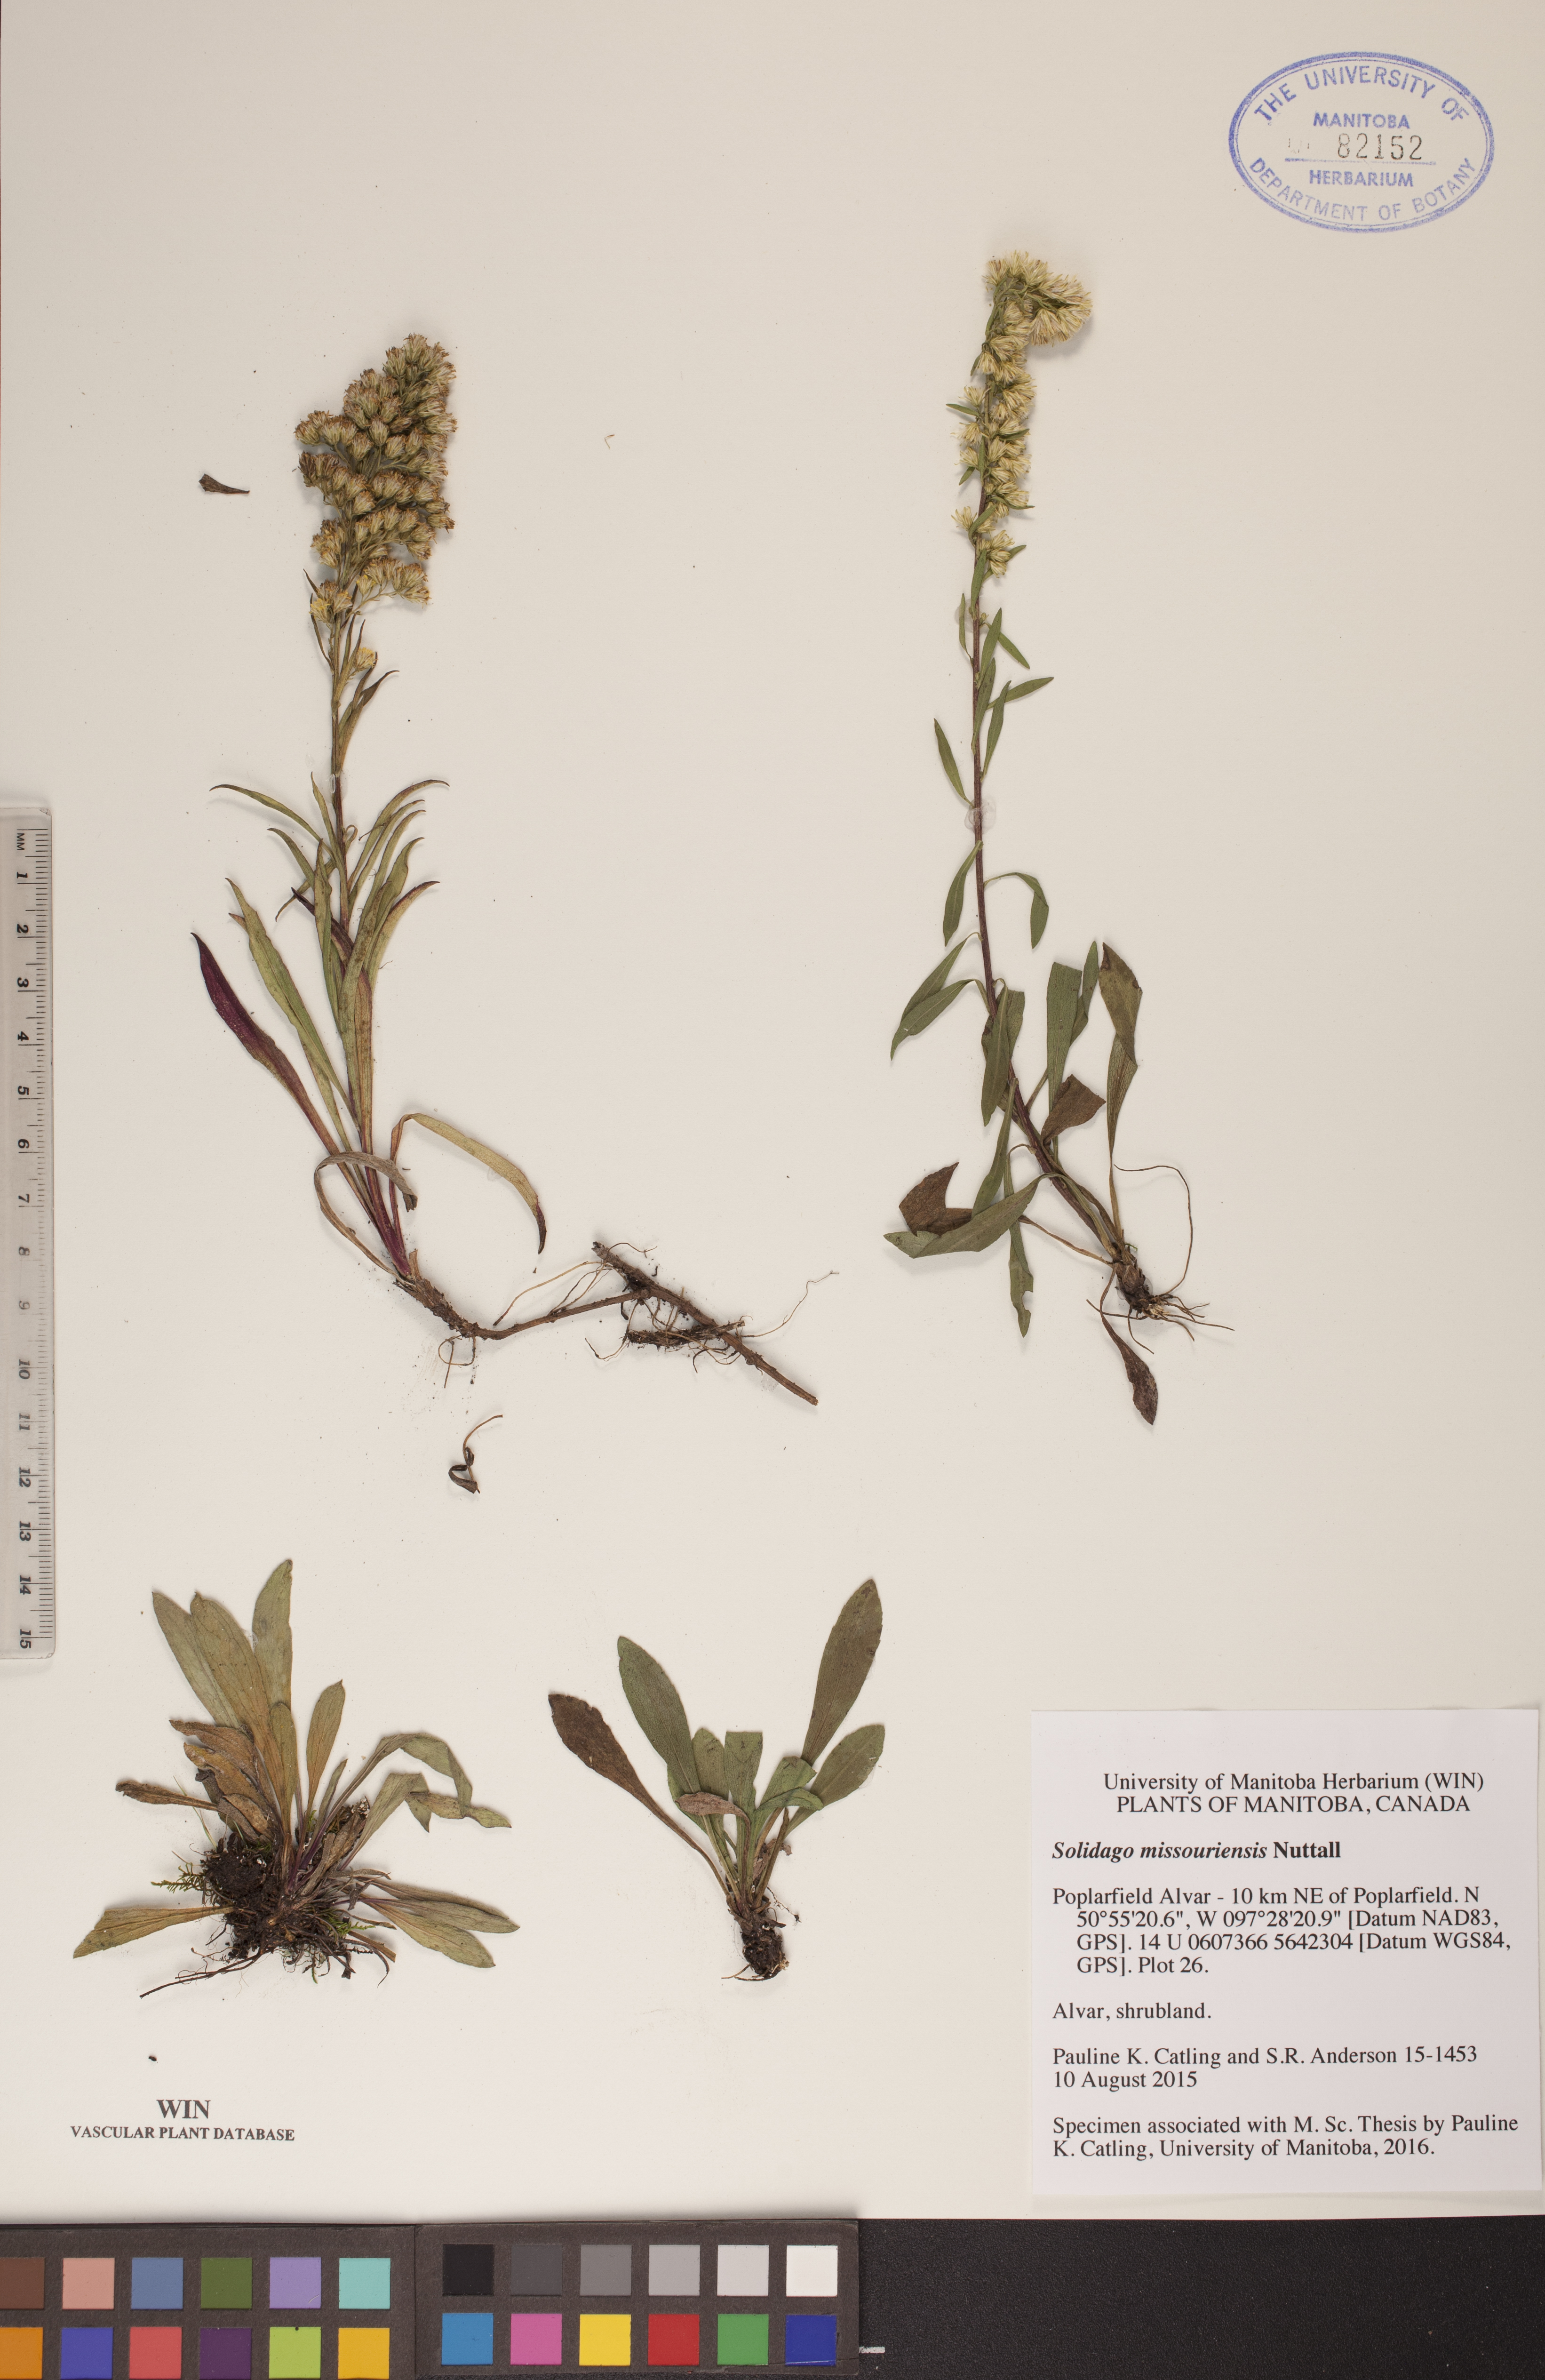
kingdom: Plantae
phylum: Tracheophyta
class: Magnoliopsida
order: Asterales
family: Asteraceae
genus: Solidago
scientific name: Solidago missouriensis
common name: Prairie goldenrod
